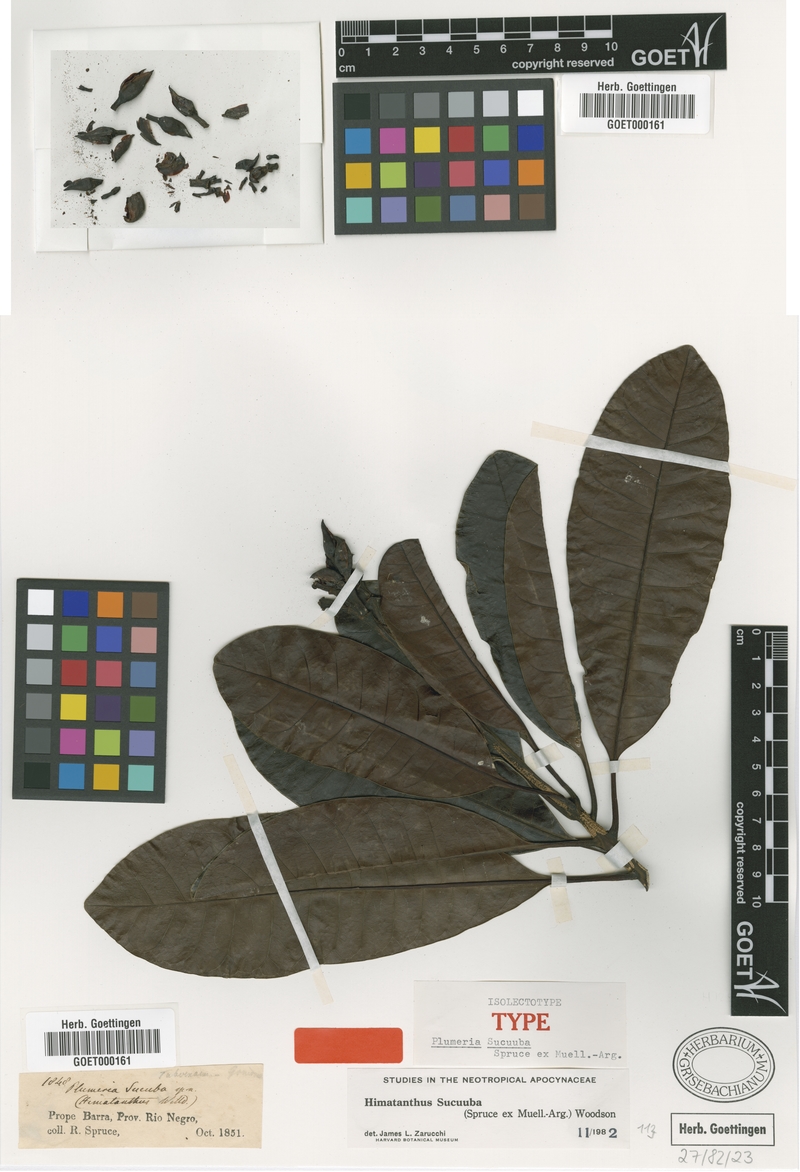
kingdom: Plantae
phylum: Tracheophyta
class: Magnoliopsida
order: Gentianales
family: Apocynaceae
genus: Himatanthus
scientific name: Himatanthus articulatus
